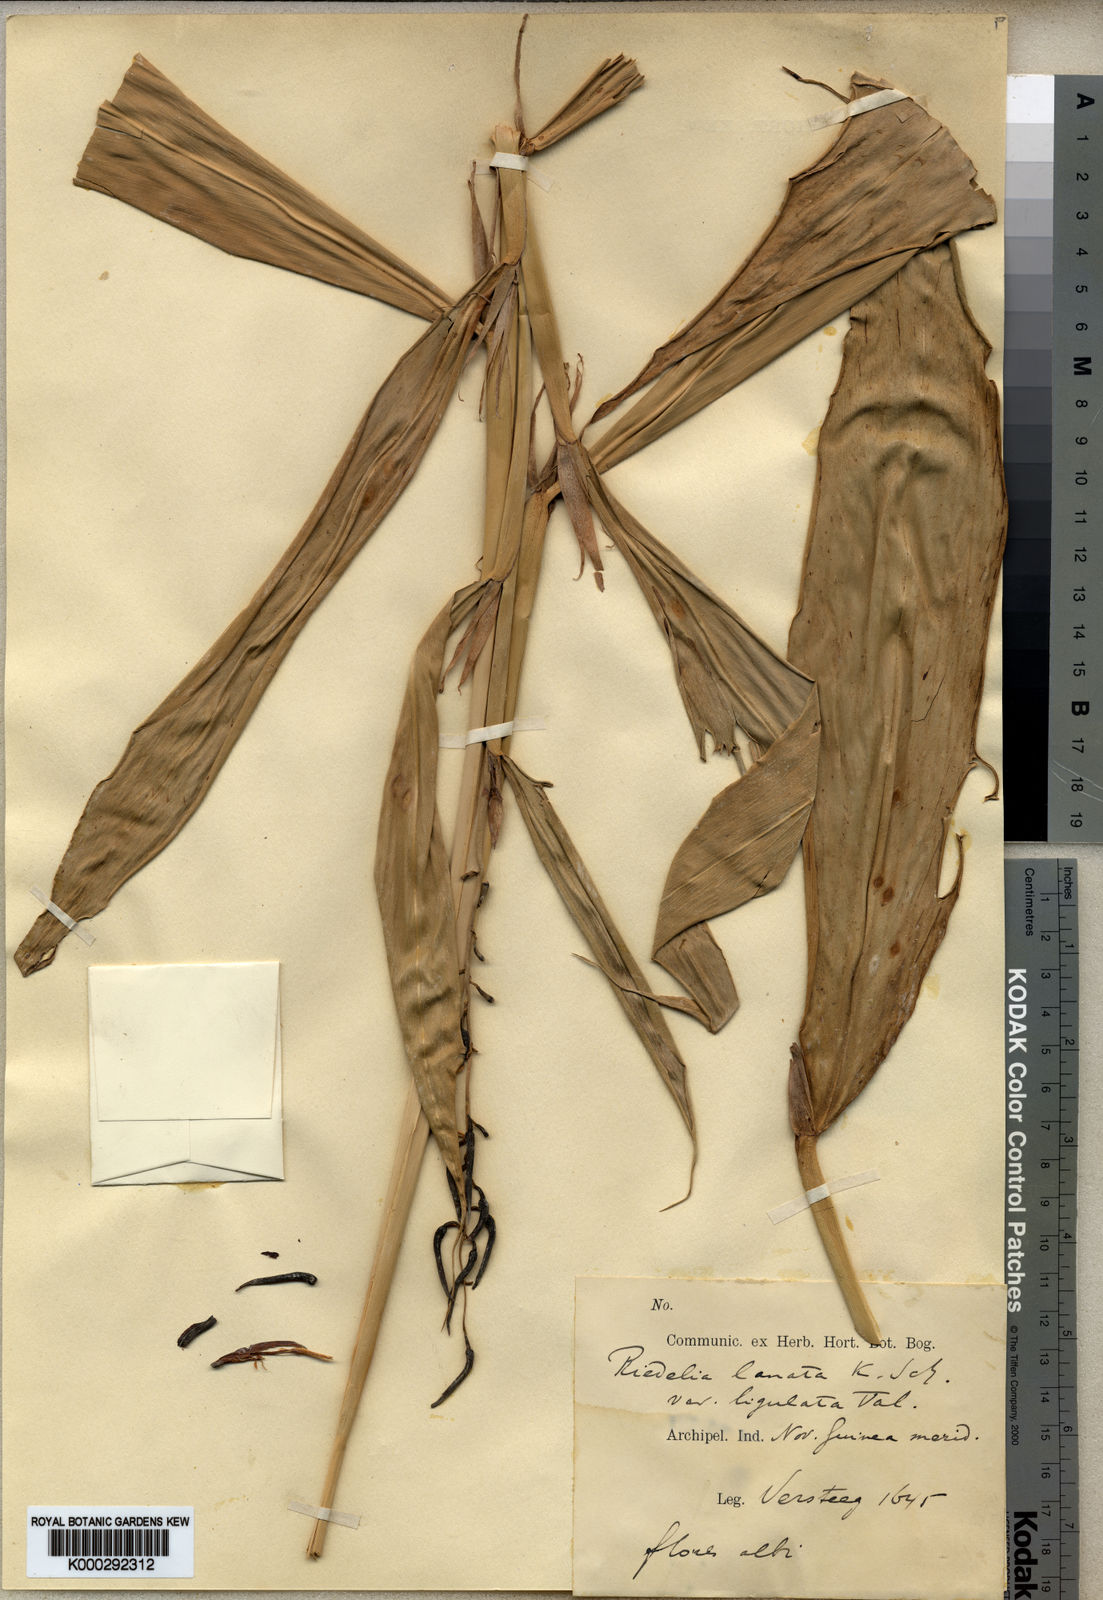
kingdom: Plantae
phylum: Tracheophyta
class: Liliopsida
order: Zingiberales
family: Zingiberaceae
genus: Riedelia
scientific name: Riedelia lanata
